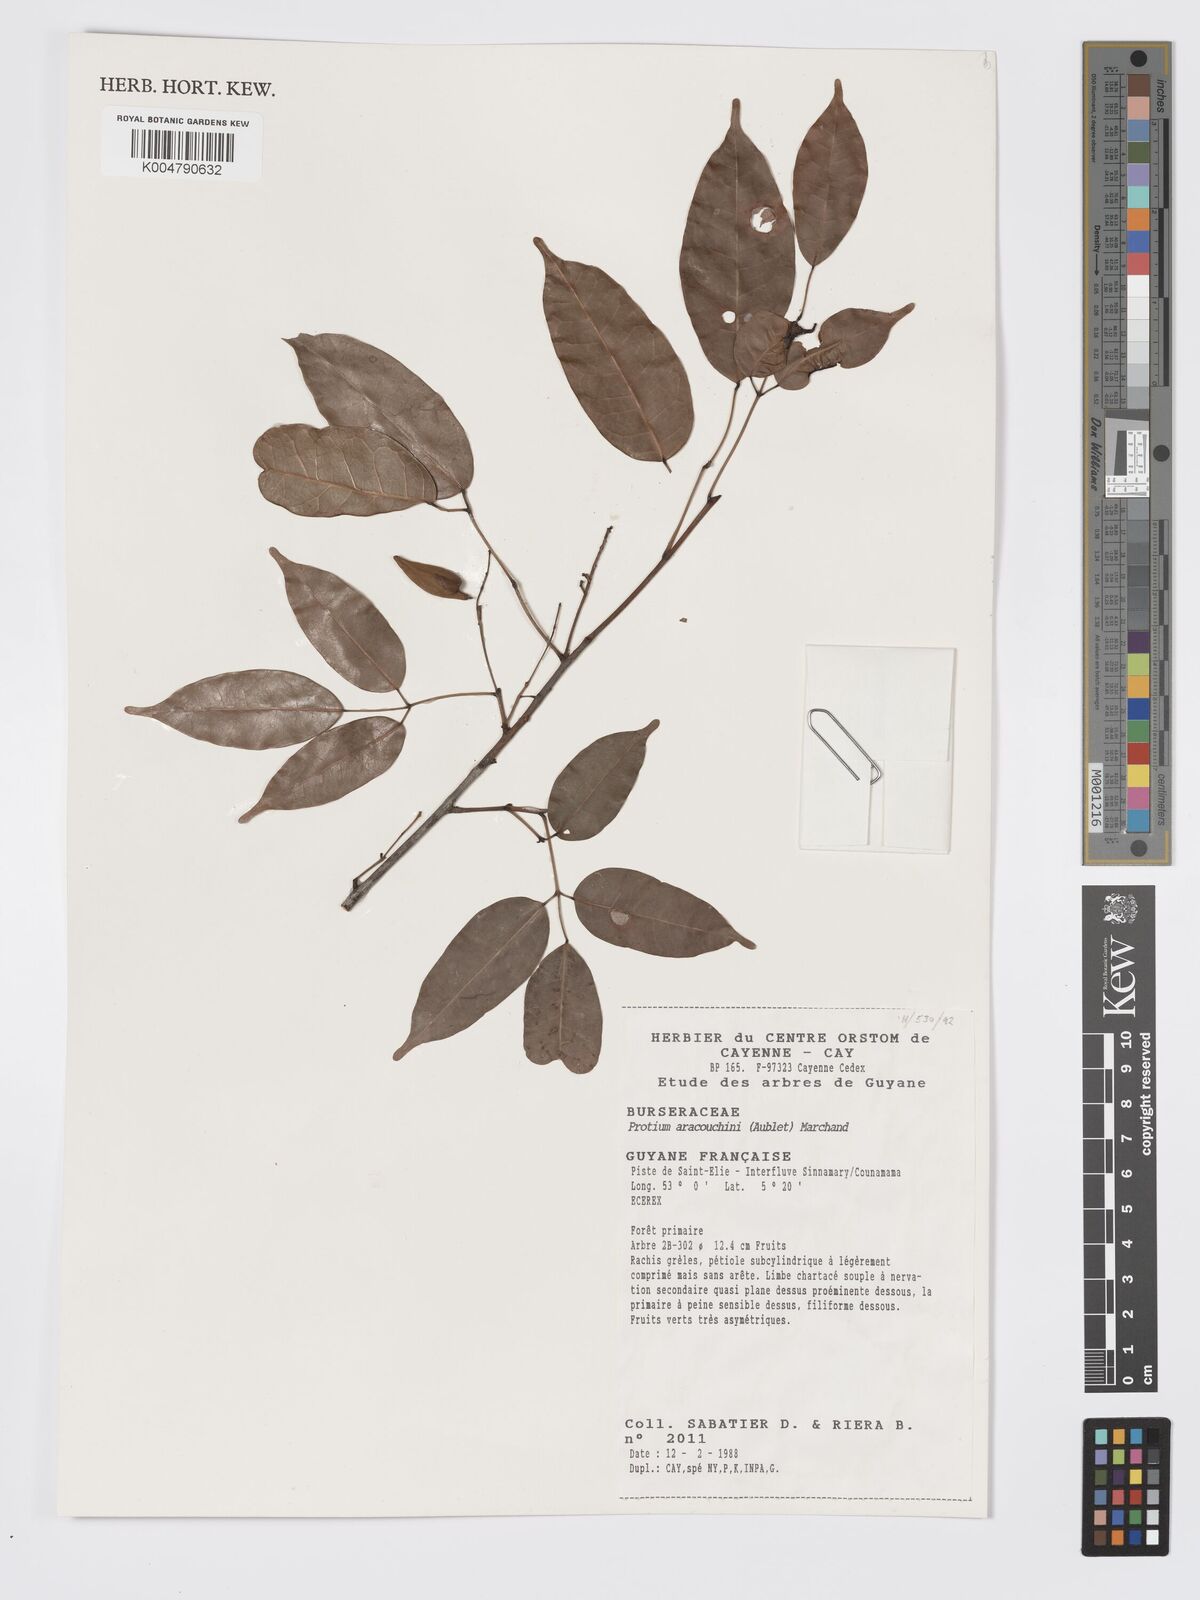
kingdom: Plantae
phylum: Tracheophyta
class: Magnoliopsida
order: Sapindales
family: Burseraceae
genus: Protium
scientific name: Protium aracouchini
